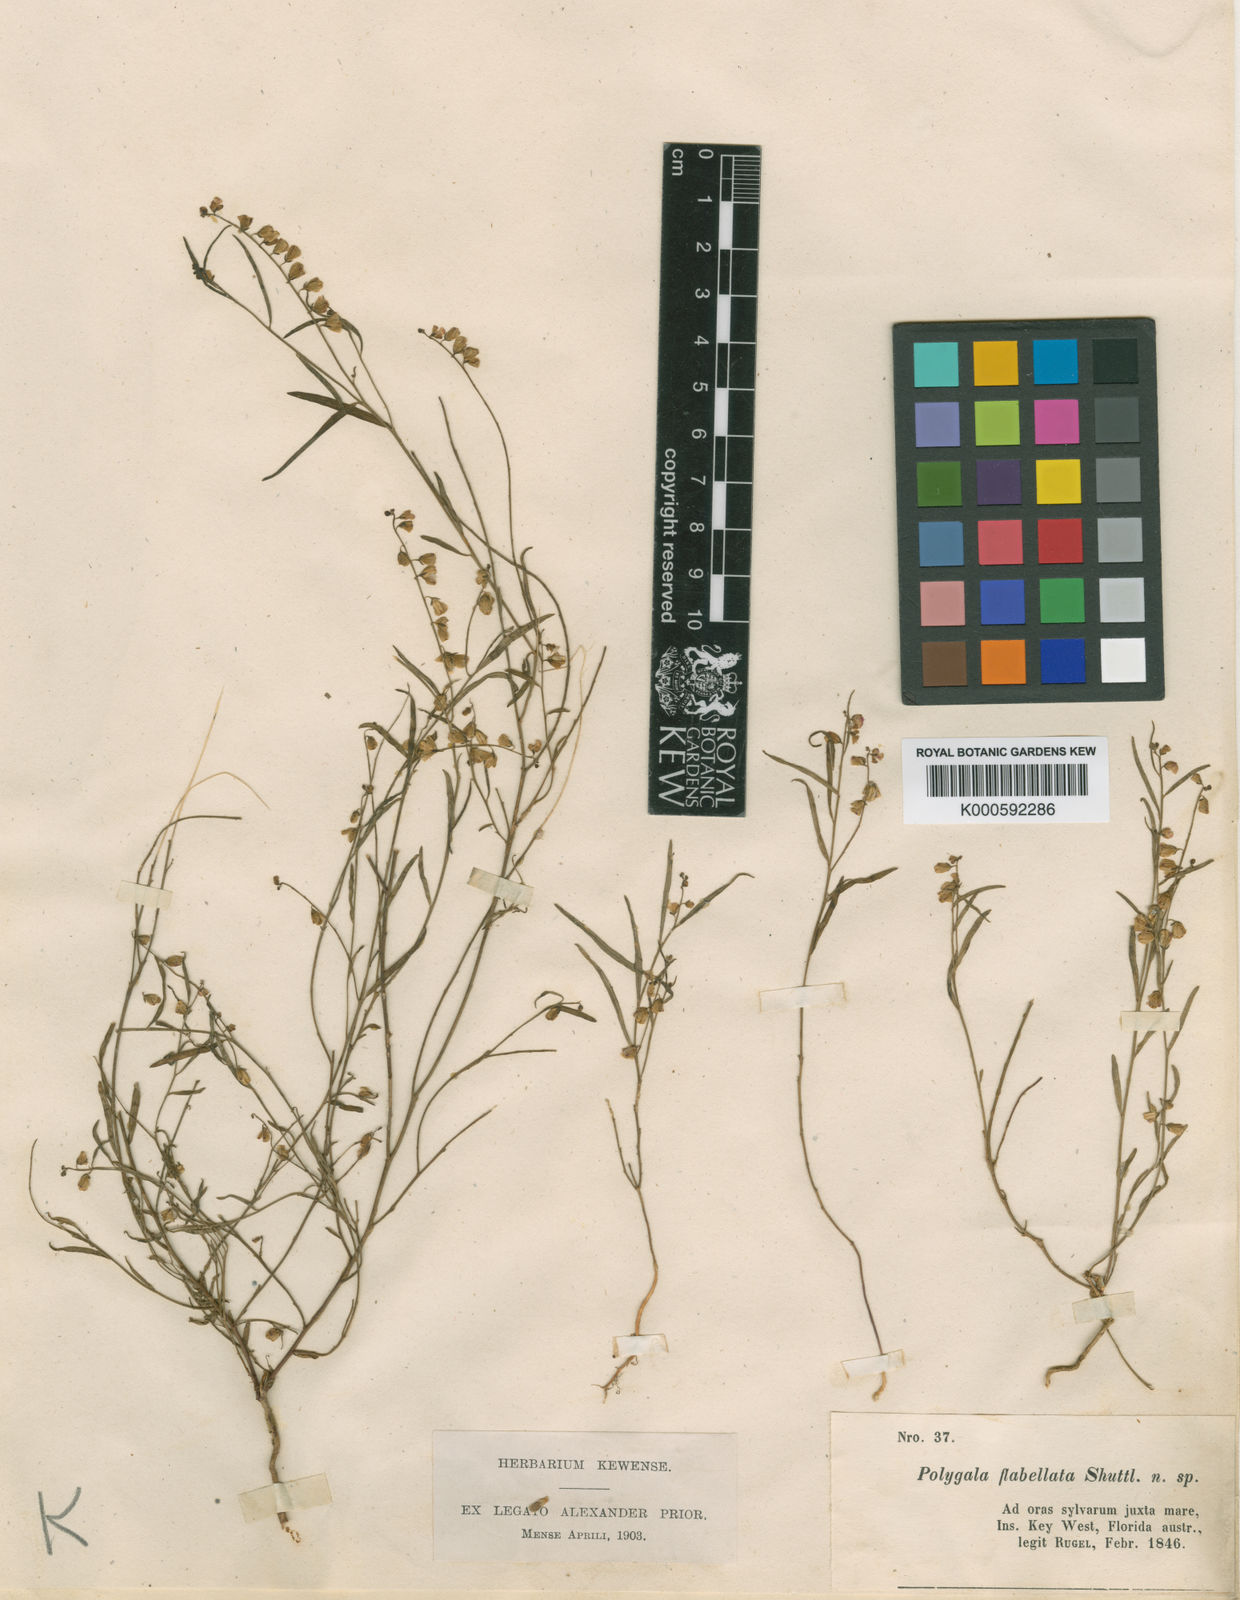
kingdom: Plantae
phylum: Tracheophyta
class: Magnoliopsida
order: Fabales
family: Polygalaceae
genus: Asemeia
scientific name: Asemeia grandiflora
